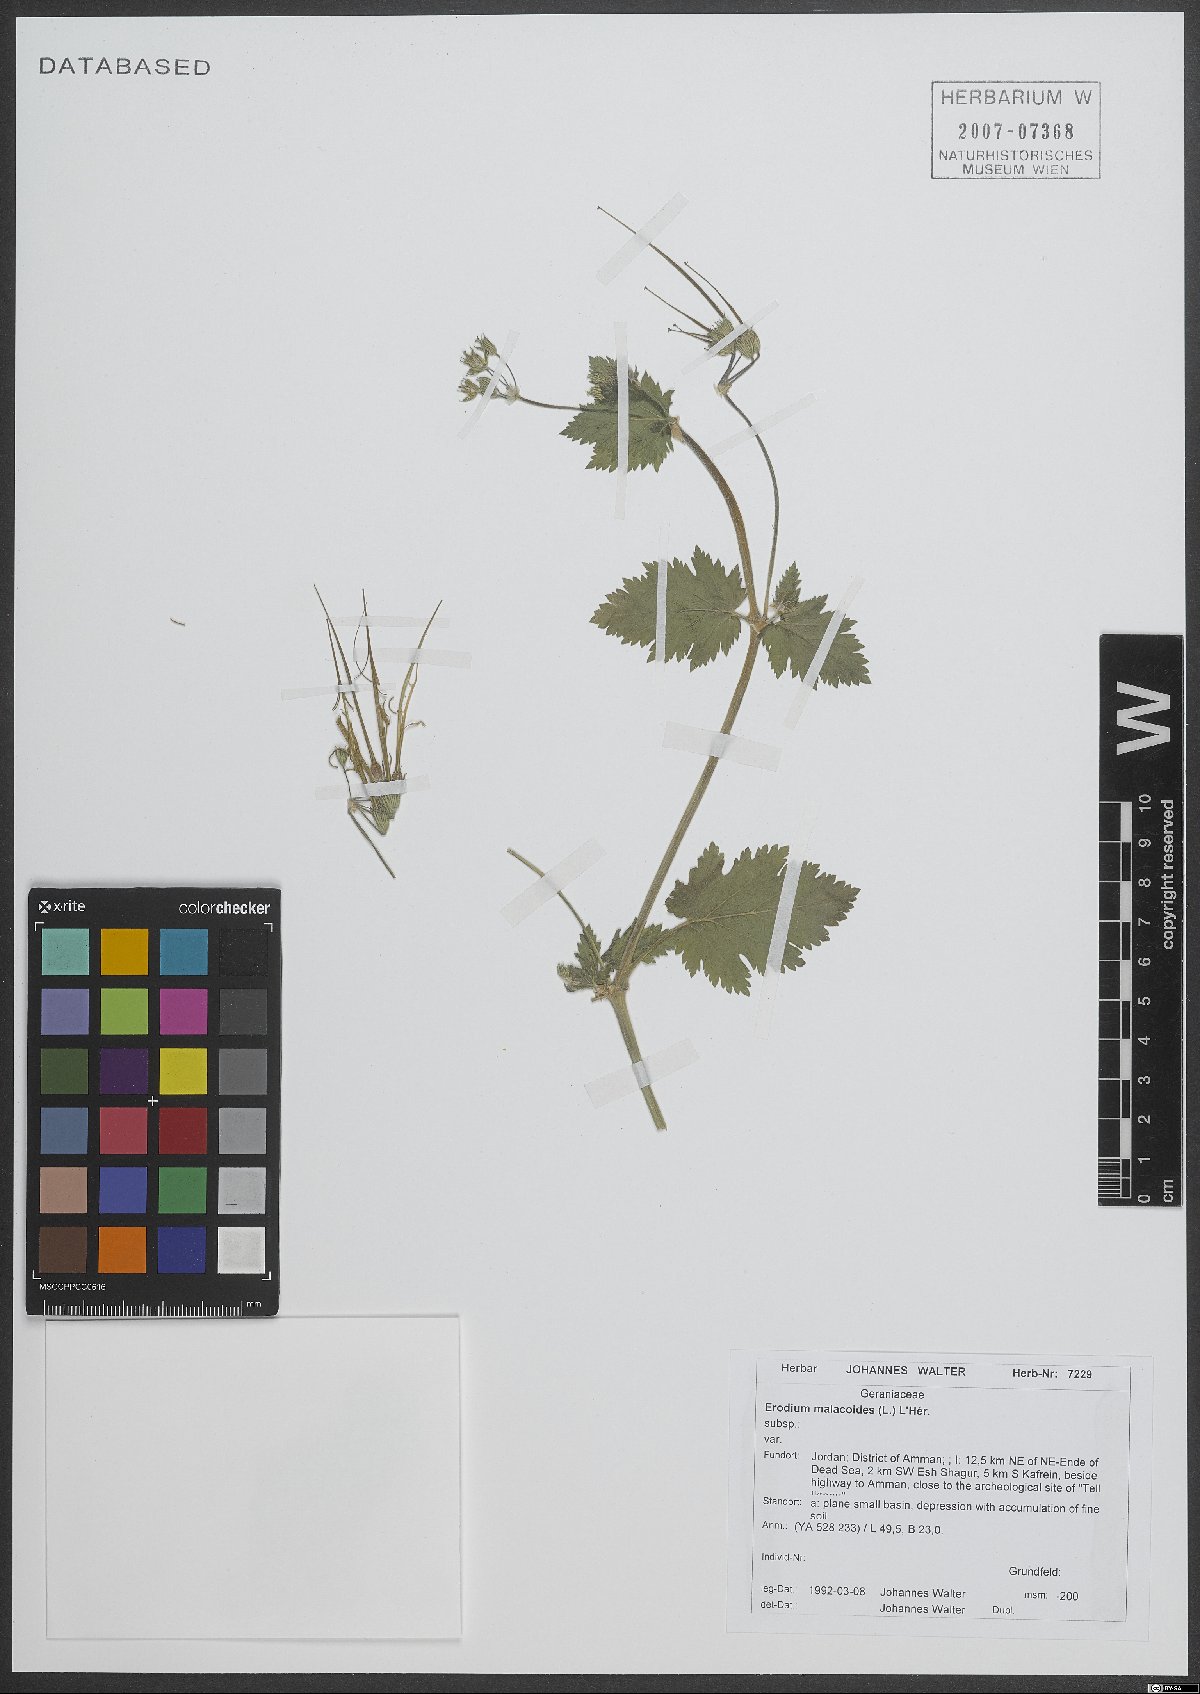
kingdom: Plantae
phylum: Tracheophyta
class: Magnoliopsida
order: Geraniales
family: Geraniaceae
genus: Erodium
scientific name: Erodium malacoides
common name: Soft stork's-bill
